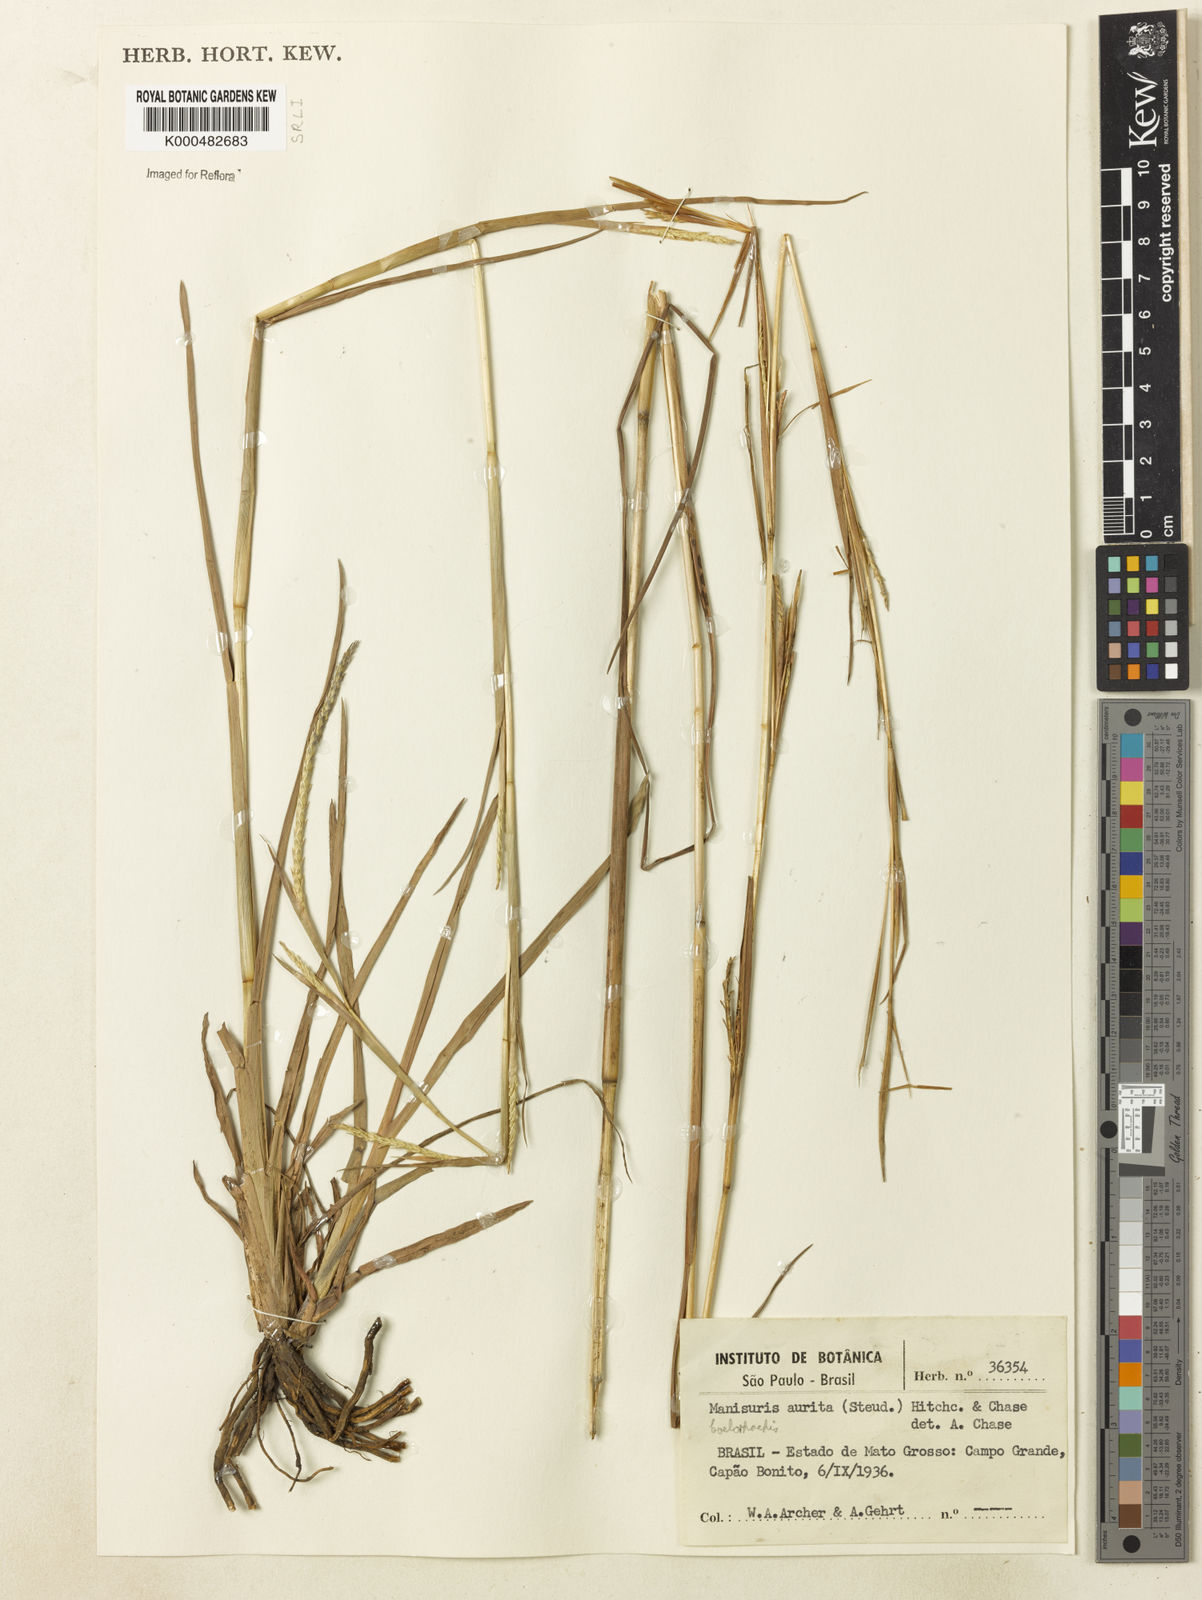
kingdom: Plantae
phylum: Tracheophyta
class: Liliopsida
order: Poales
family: Poaceae
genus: Rottboellia
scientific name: Rottboellia aurita
